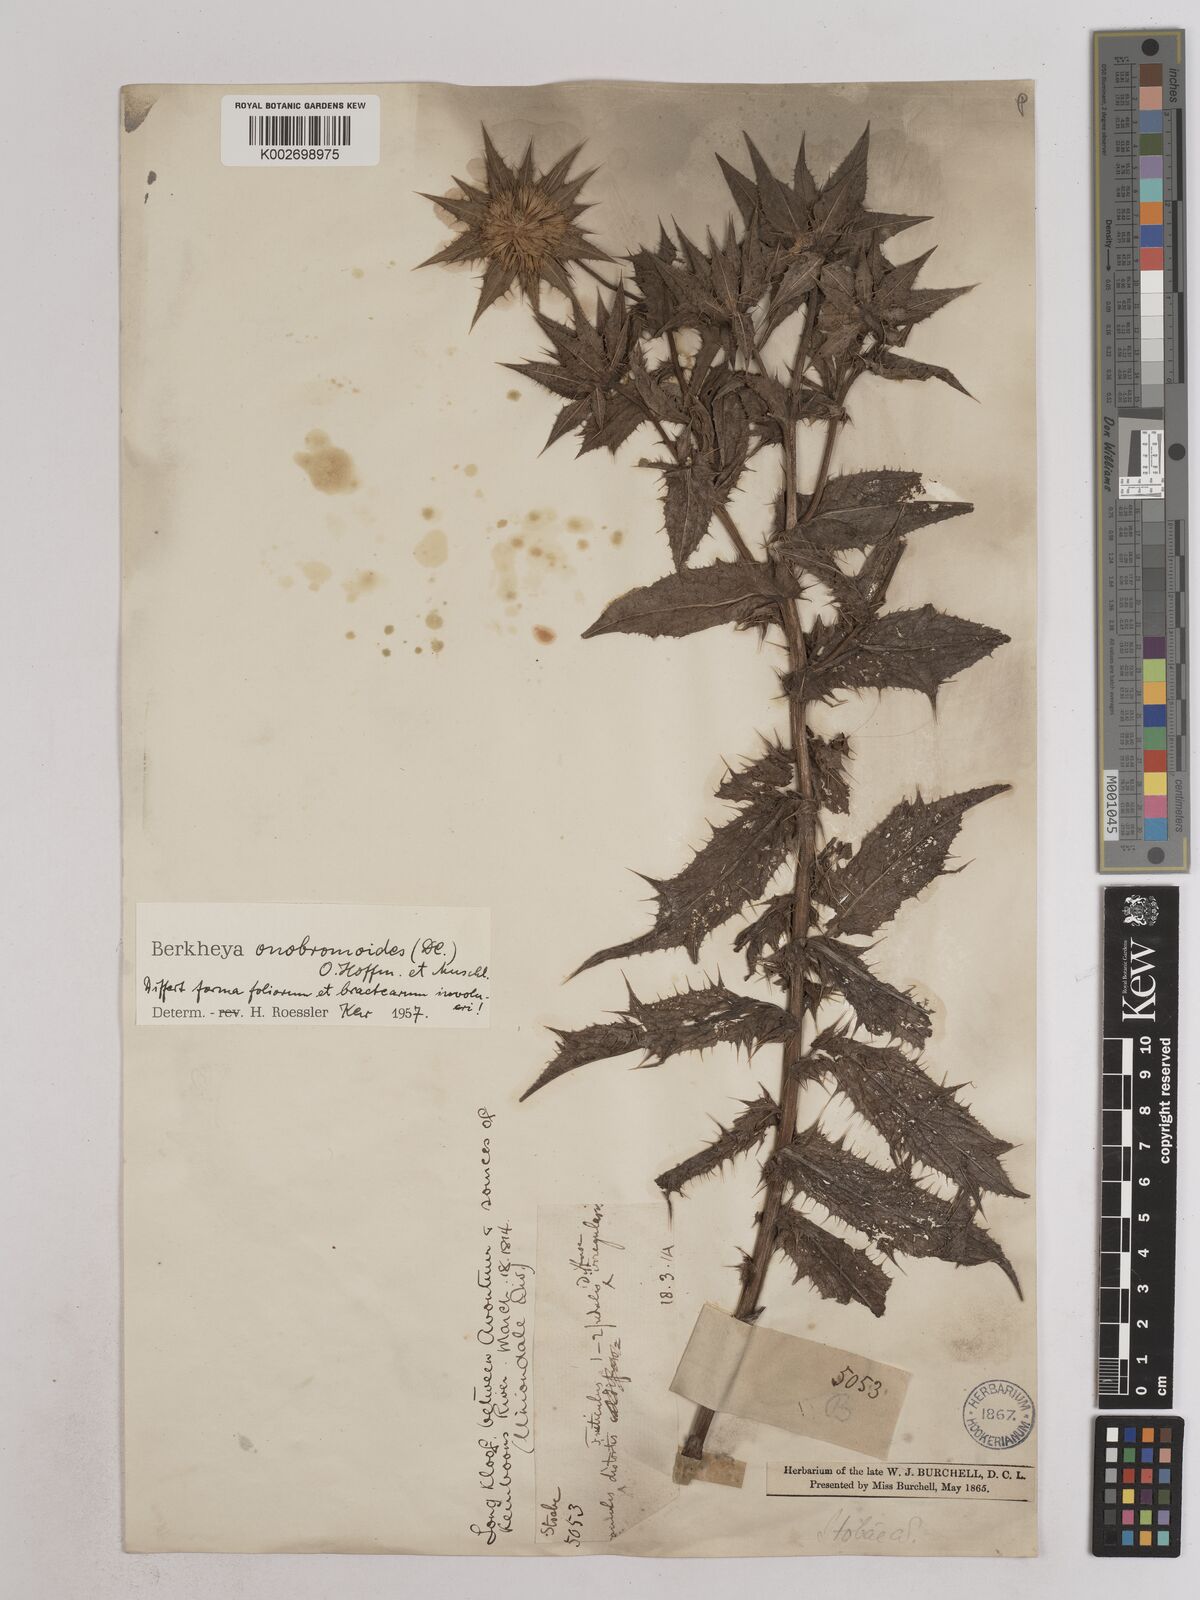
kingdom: Plantae
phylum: Tracheophyta
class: Magnoliopsida
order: Asterales
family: Asteraceae
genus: Berkheya
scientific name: Berkheya onobromoides
